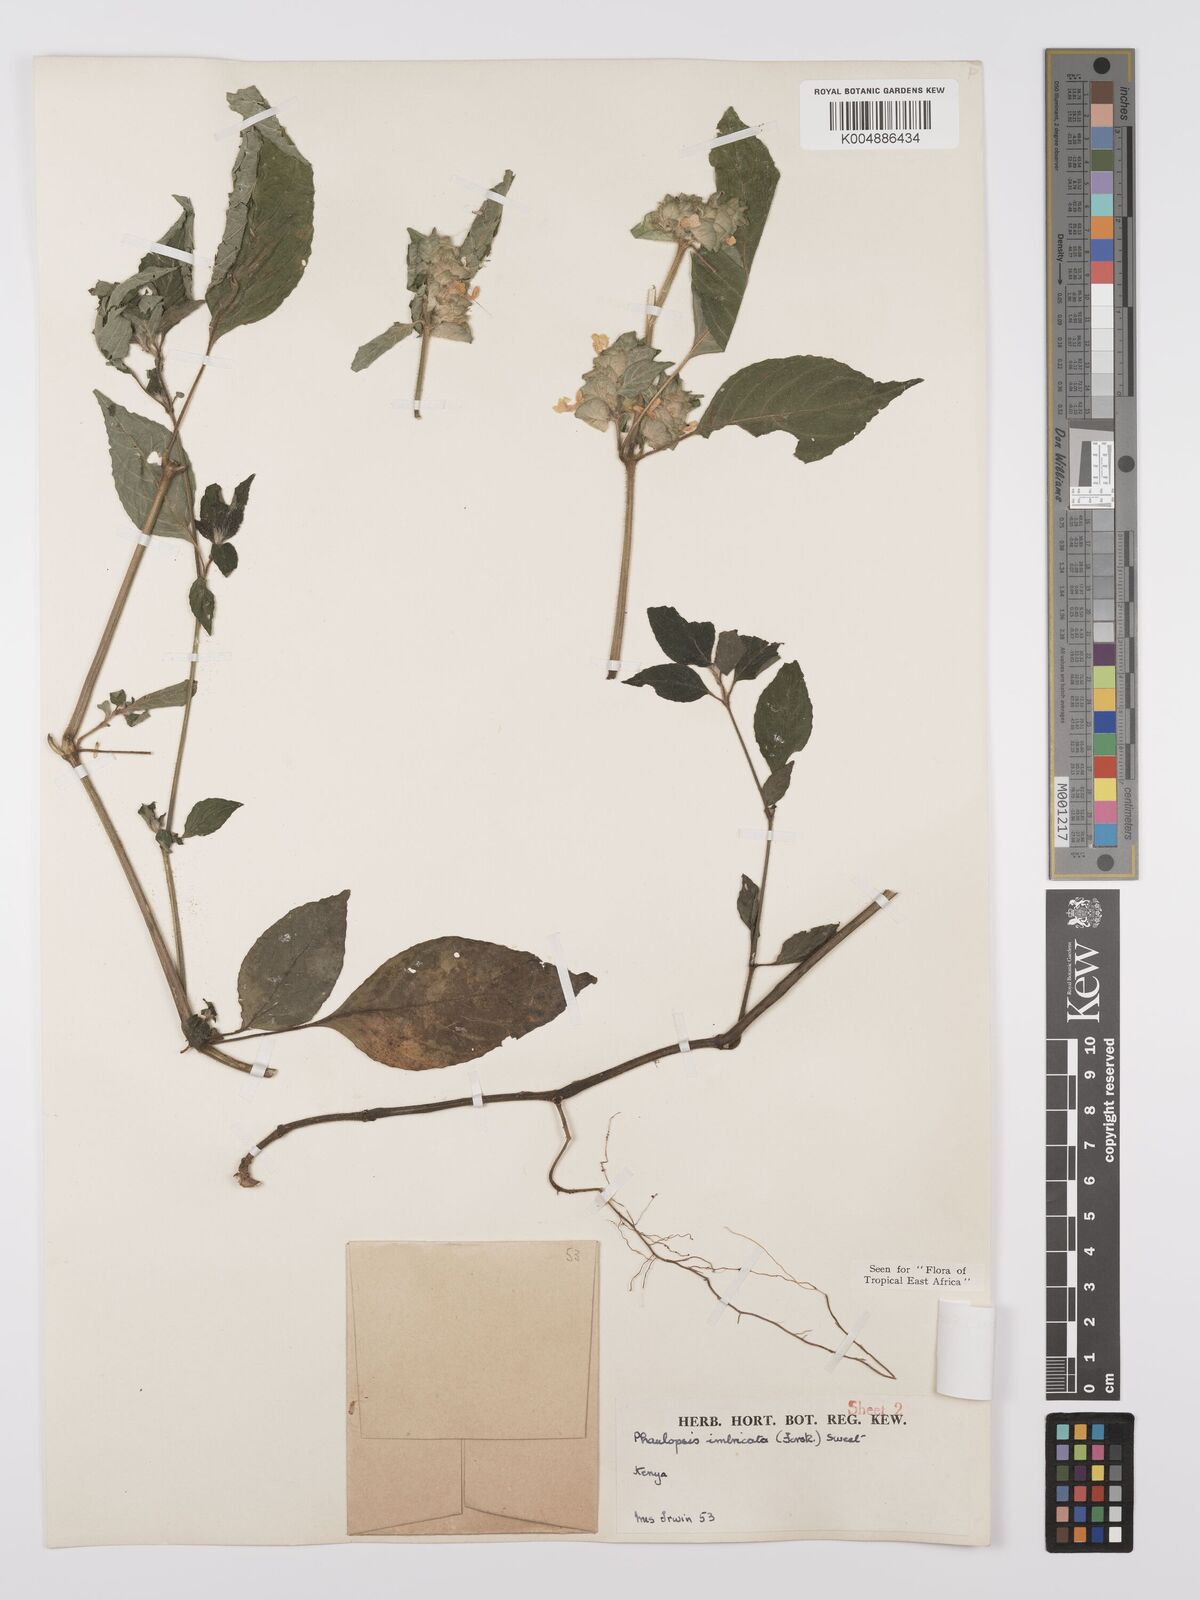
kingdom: Plantae
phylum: Tracheophyta
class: Magnoliopsida
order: Lamiales
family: Acanthaceae
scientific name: Acanthaceae
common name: Acanthaceae
